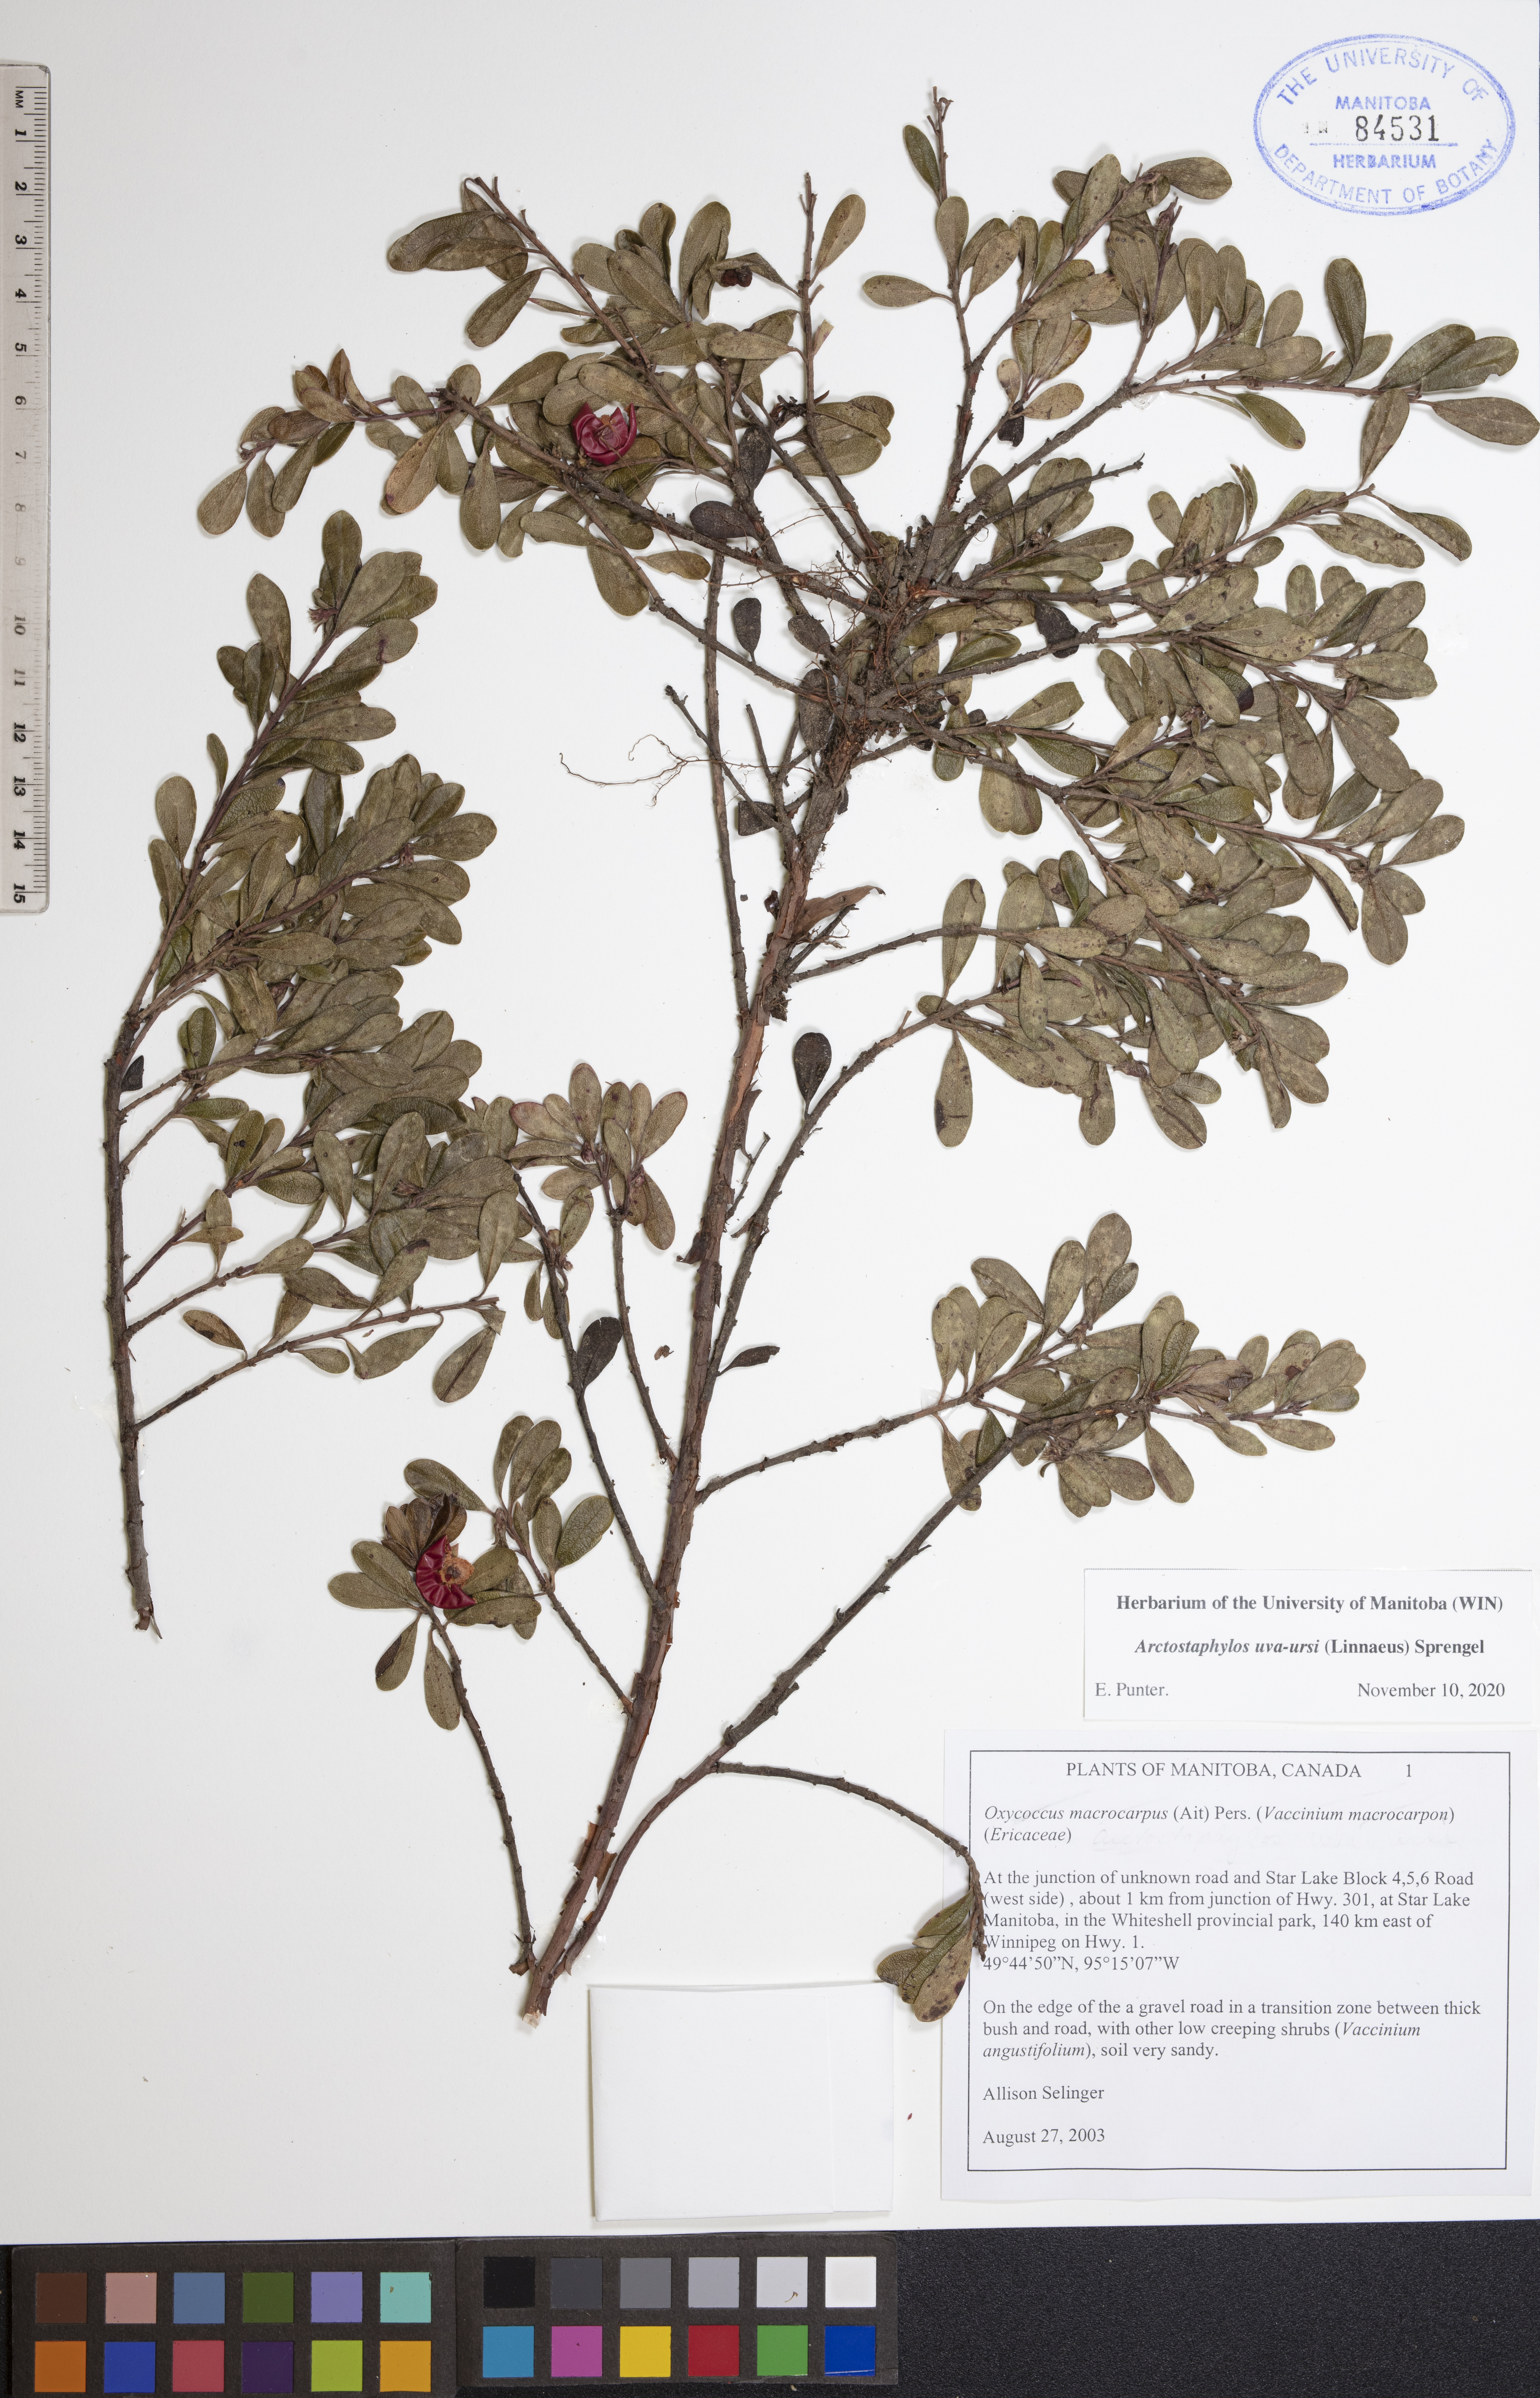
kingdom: Plantae
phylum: Tracheophyta
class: Magnoliopsida
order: Ericales
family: Ericaceae
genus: Arctostaphylos
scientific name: Arctostaphylos uva-ursi
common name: Bearberry
